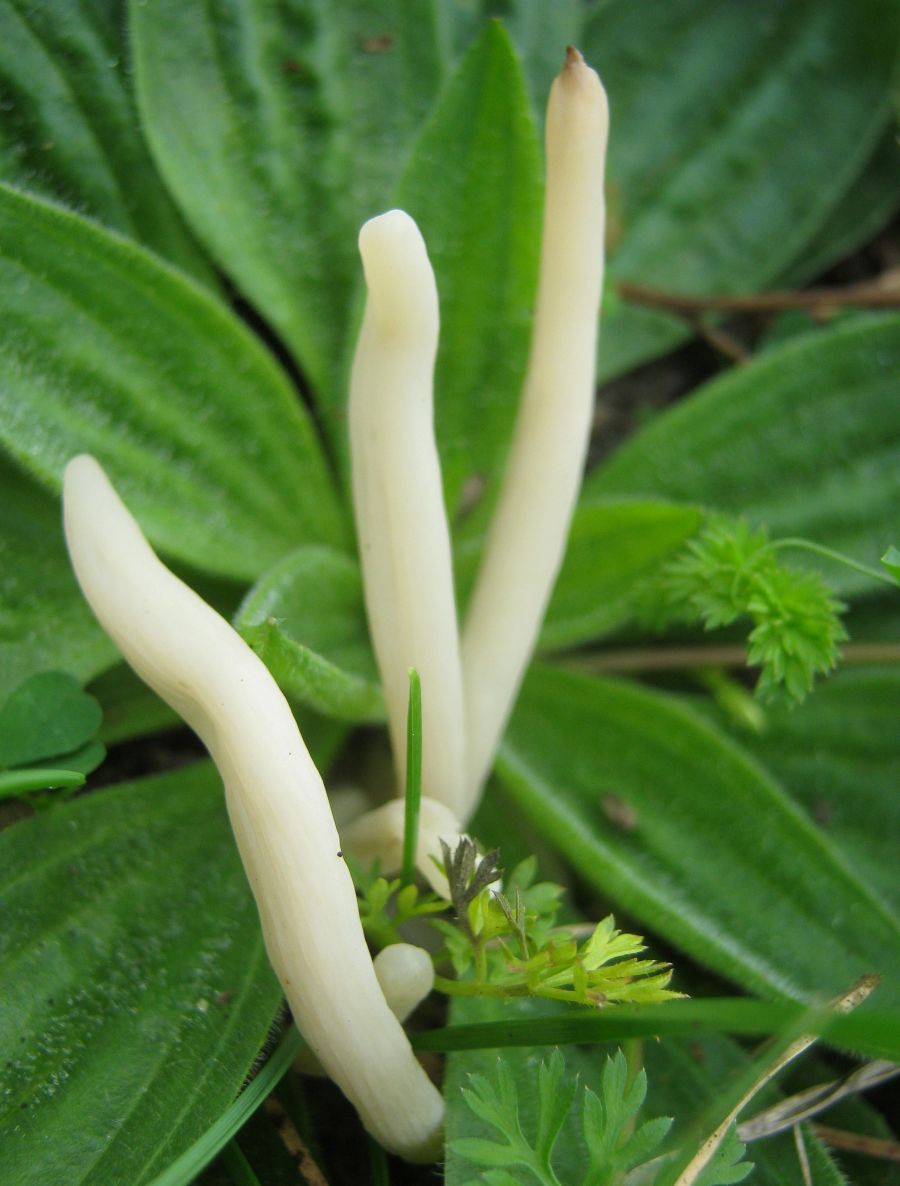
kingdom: Fungi
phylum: Basidiomycota
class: Agaricomycetes
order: Agaricales
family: Clavariaceae
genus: Clavaria
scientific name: Clavaria fragilis
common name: bugtet køllesvamp
